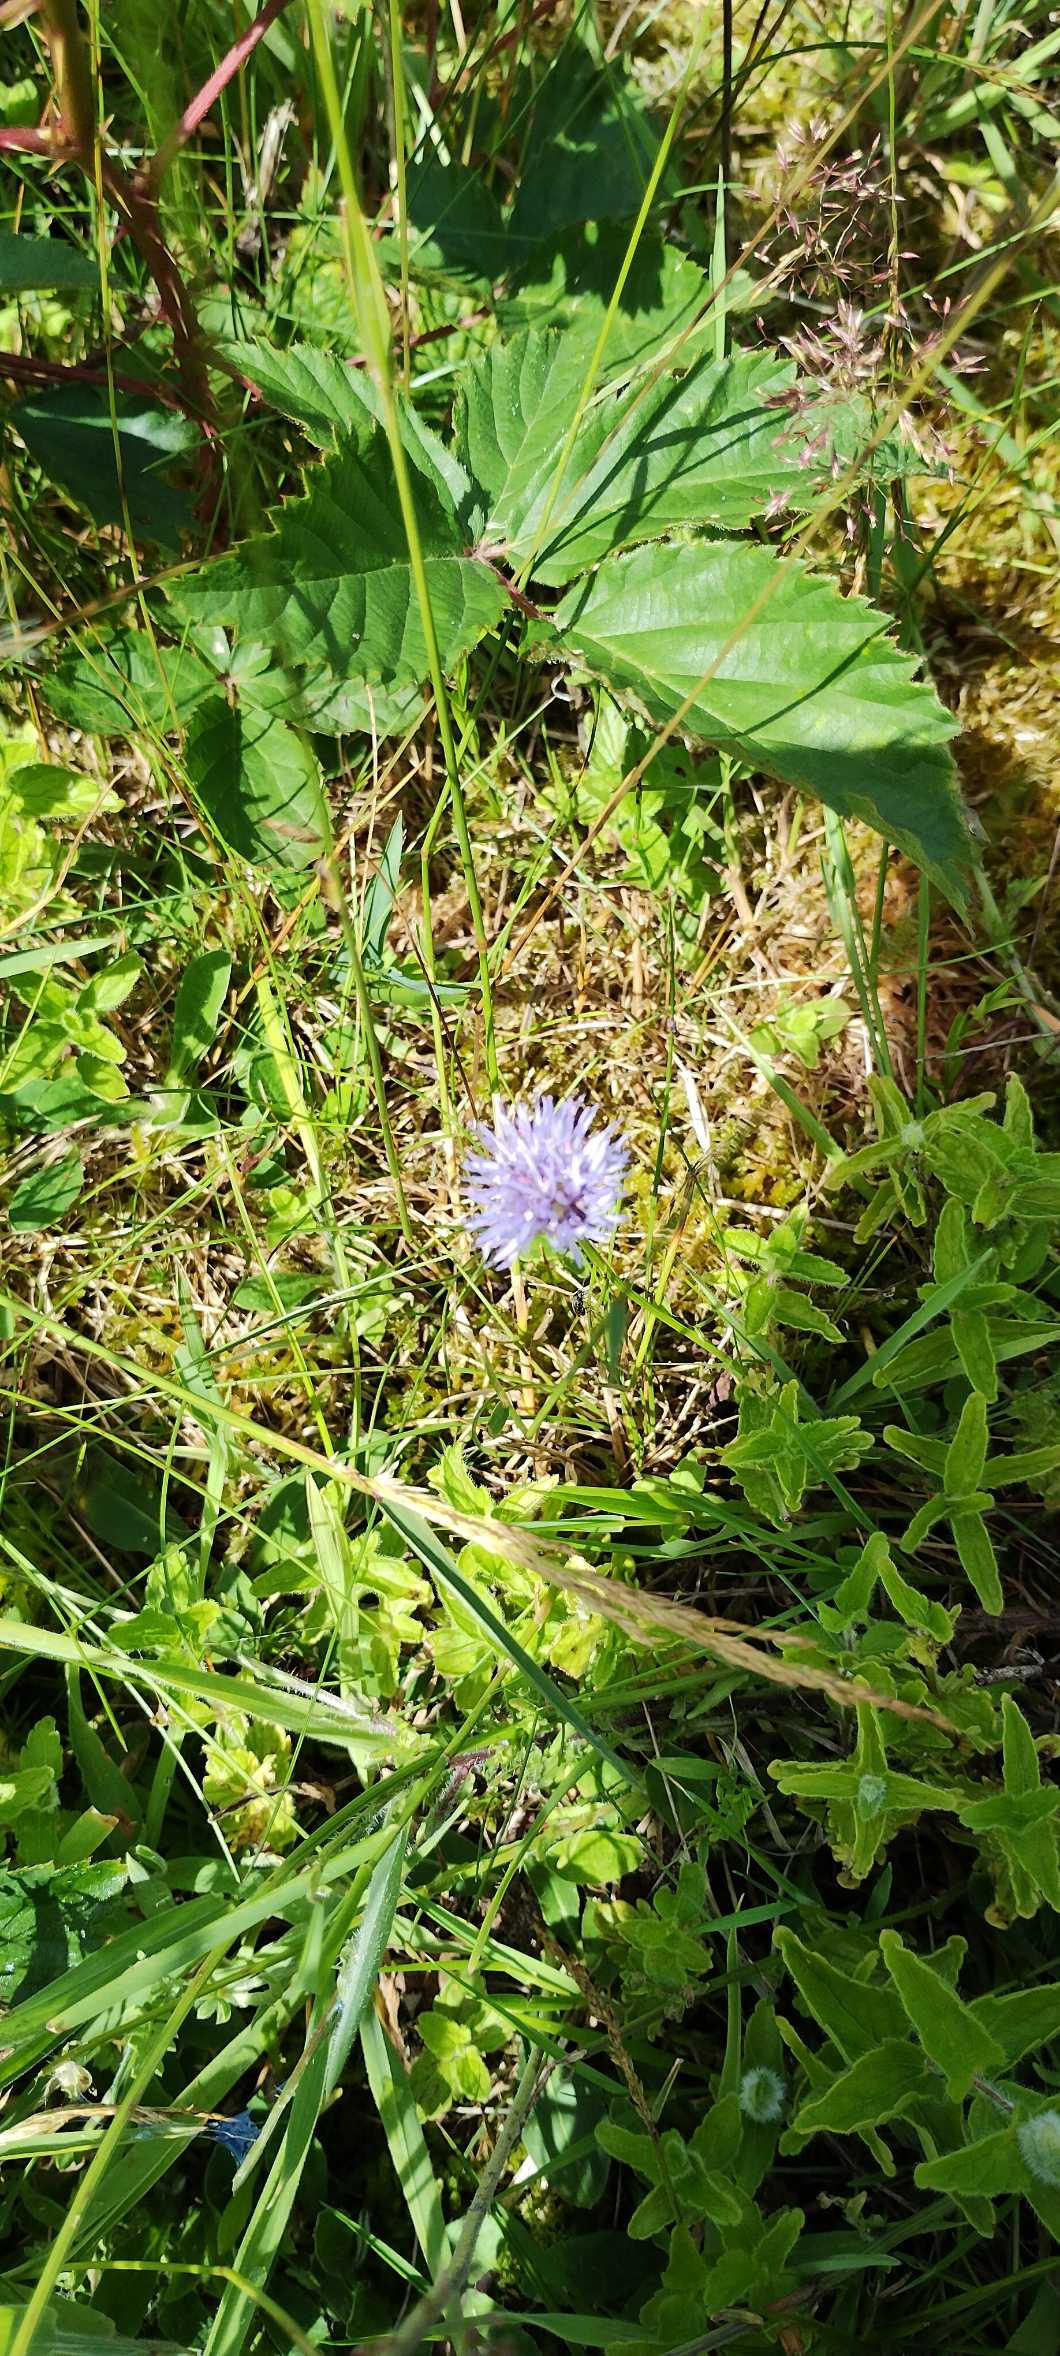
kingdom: Plantae
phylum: Tracheophyta
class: Magnoliopsida
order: Asterales
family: Campanulaceae
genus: Jasione
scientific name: Jasione montana
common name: Blåmunke
